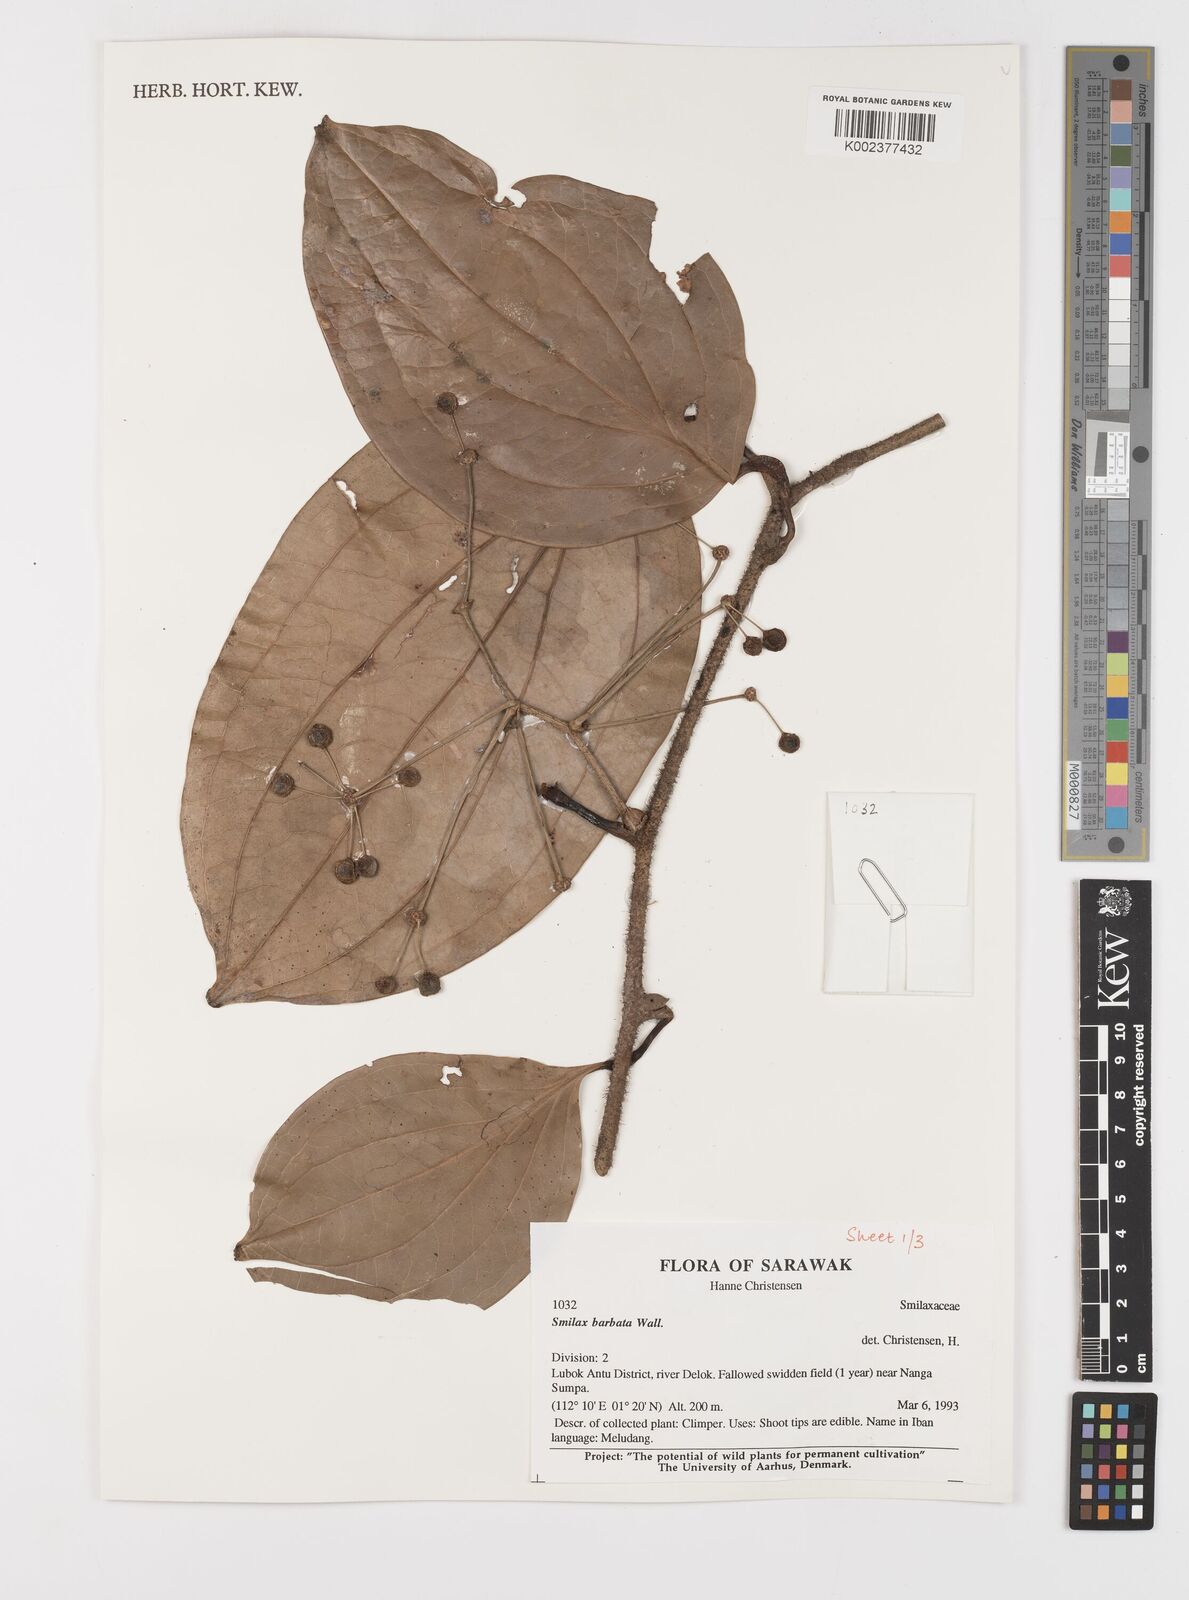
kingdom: Plantae
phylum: Tracheophyta
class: Liliopsida
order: Liliales
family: Smilacaceae
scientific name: Smilacaceae
